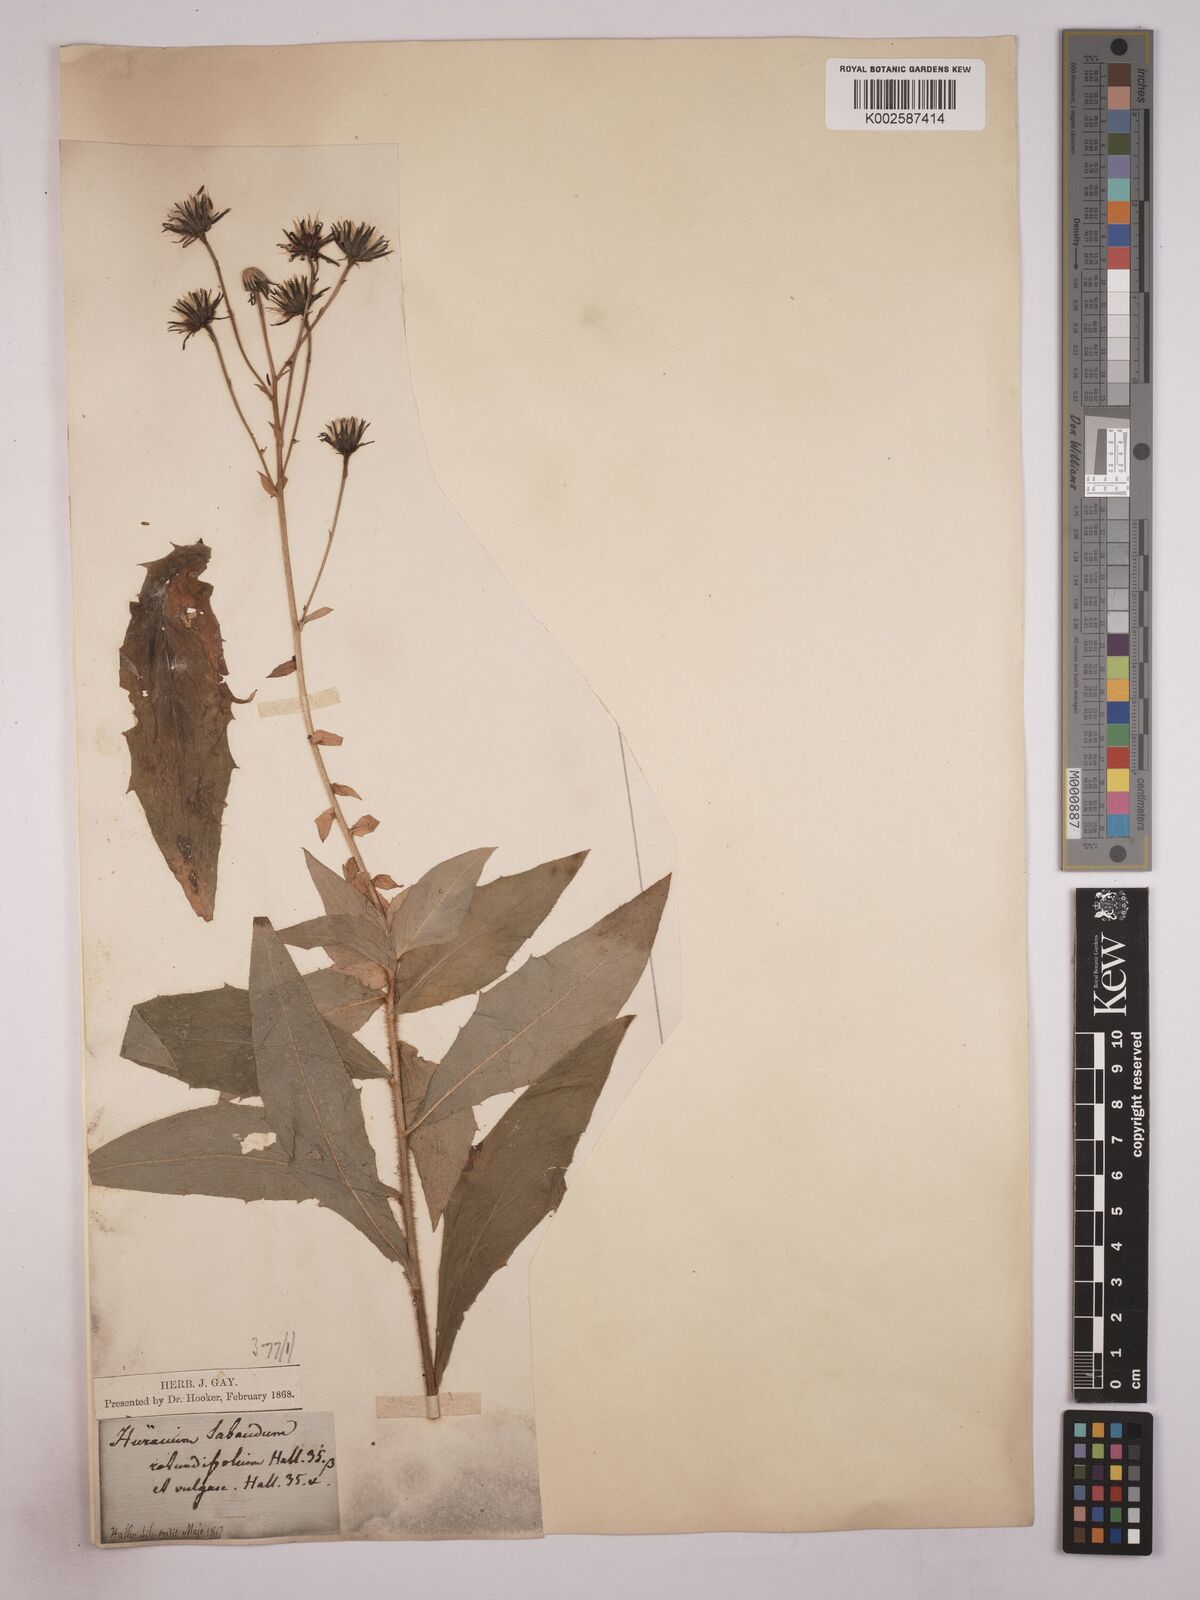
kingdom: Plantae
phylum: Tracheophyta
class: Magnoliopsida
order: Asterales
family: Asteraceae
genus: Hieracium
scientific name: Hieracium
